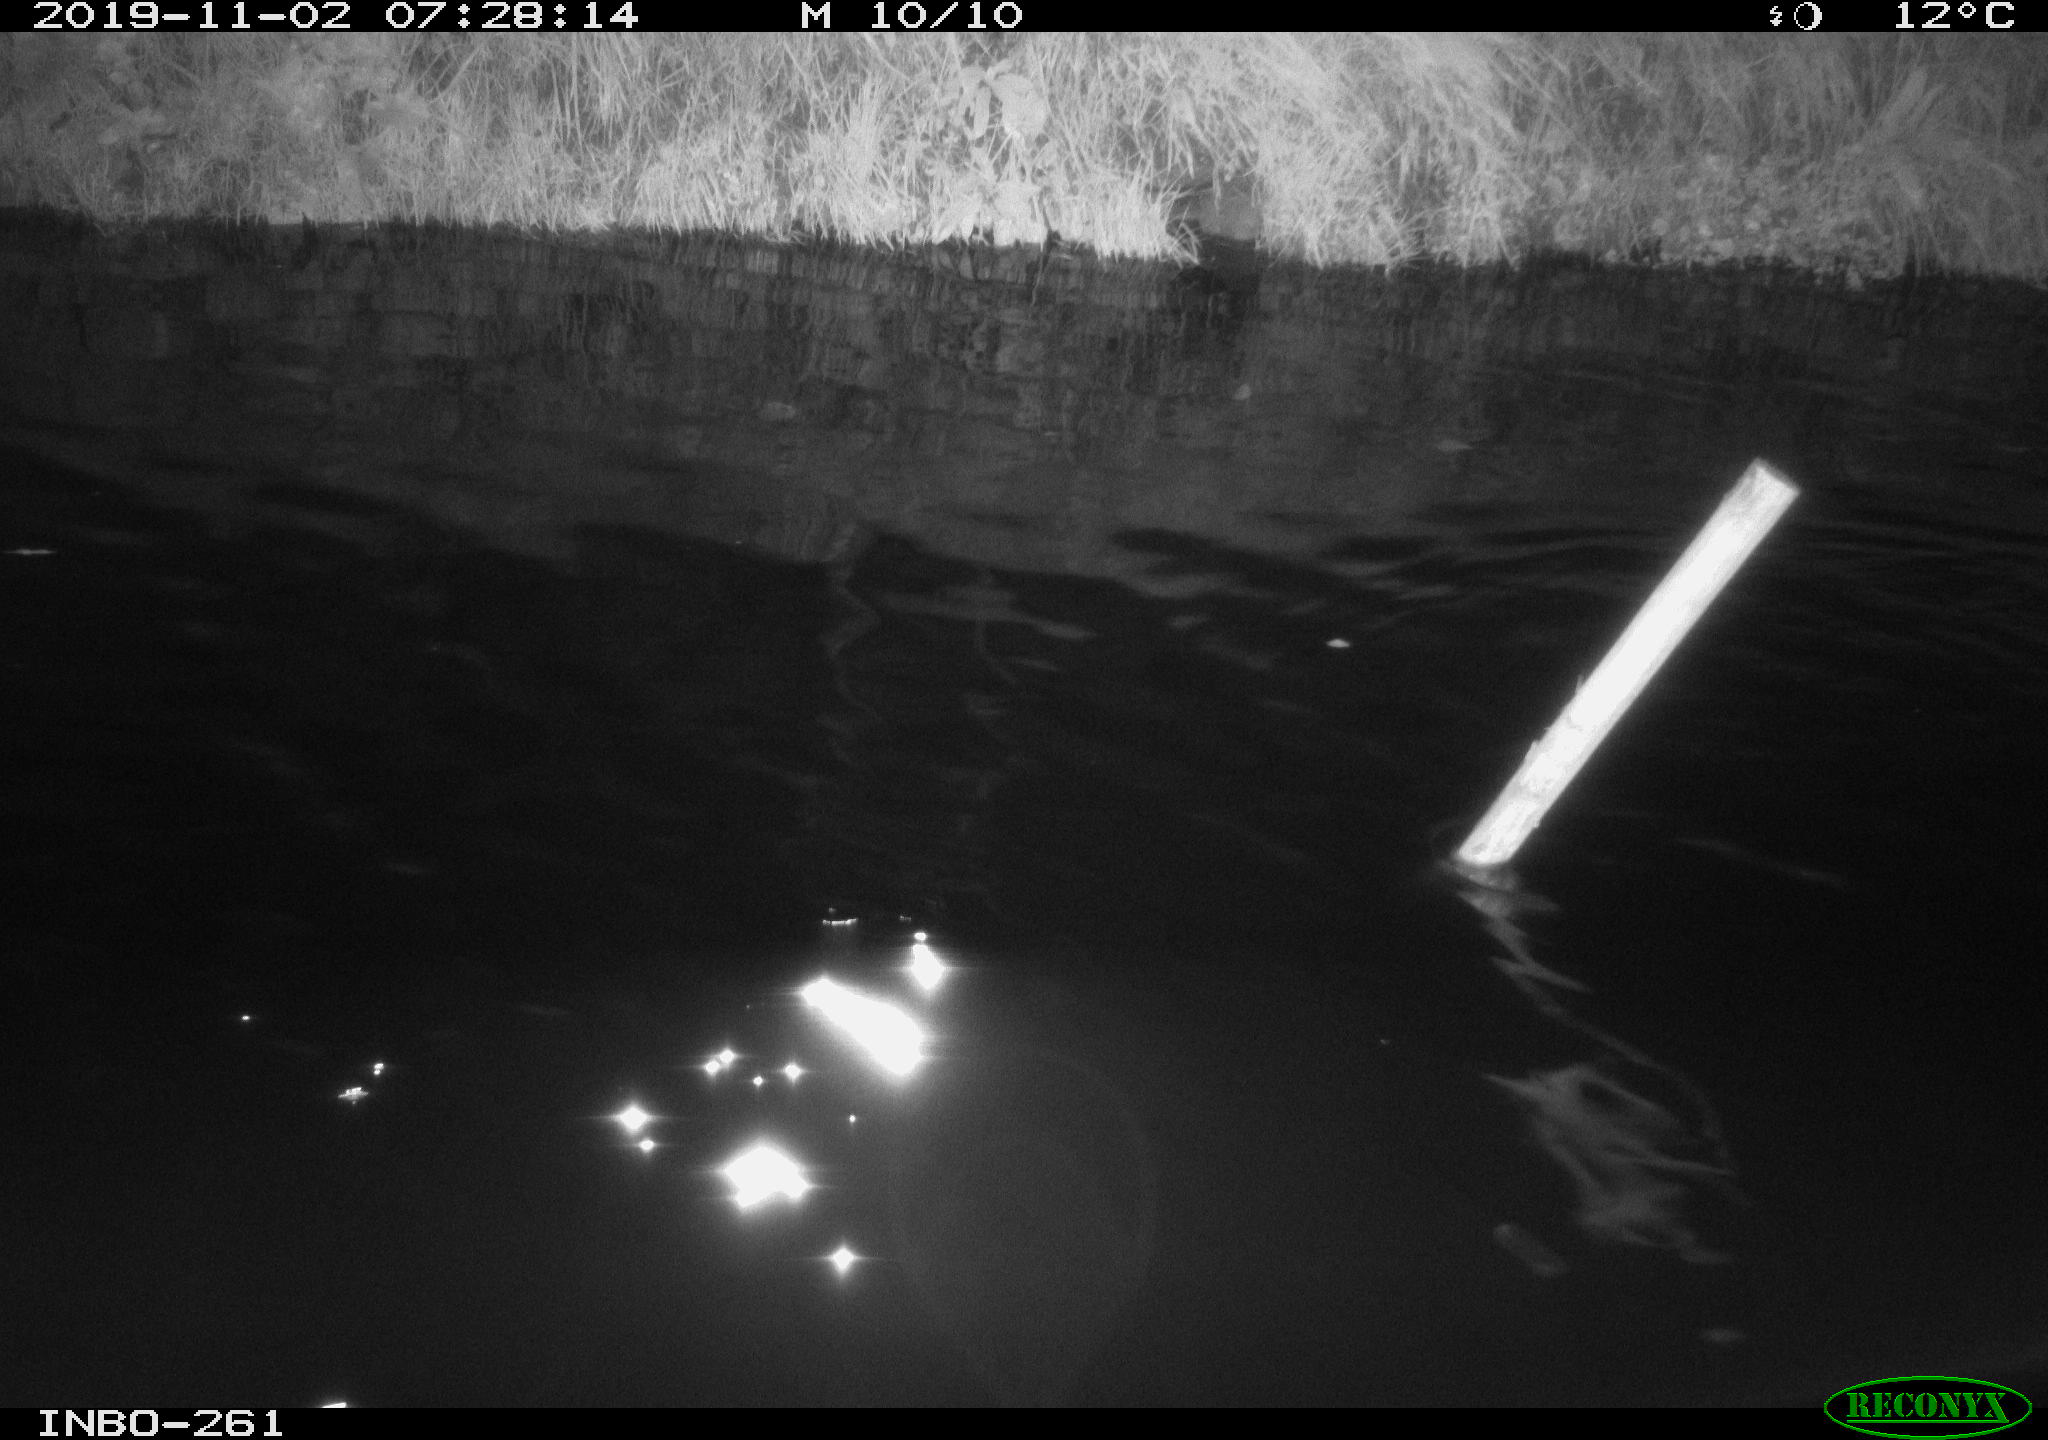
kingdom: Animalia
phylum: Chordata
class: Aves
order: Anseriformes
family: Anatidae
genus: Anas
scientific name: Anas platyrhynchos
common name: Mallard
